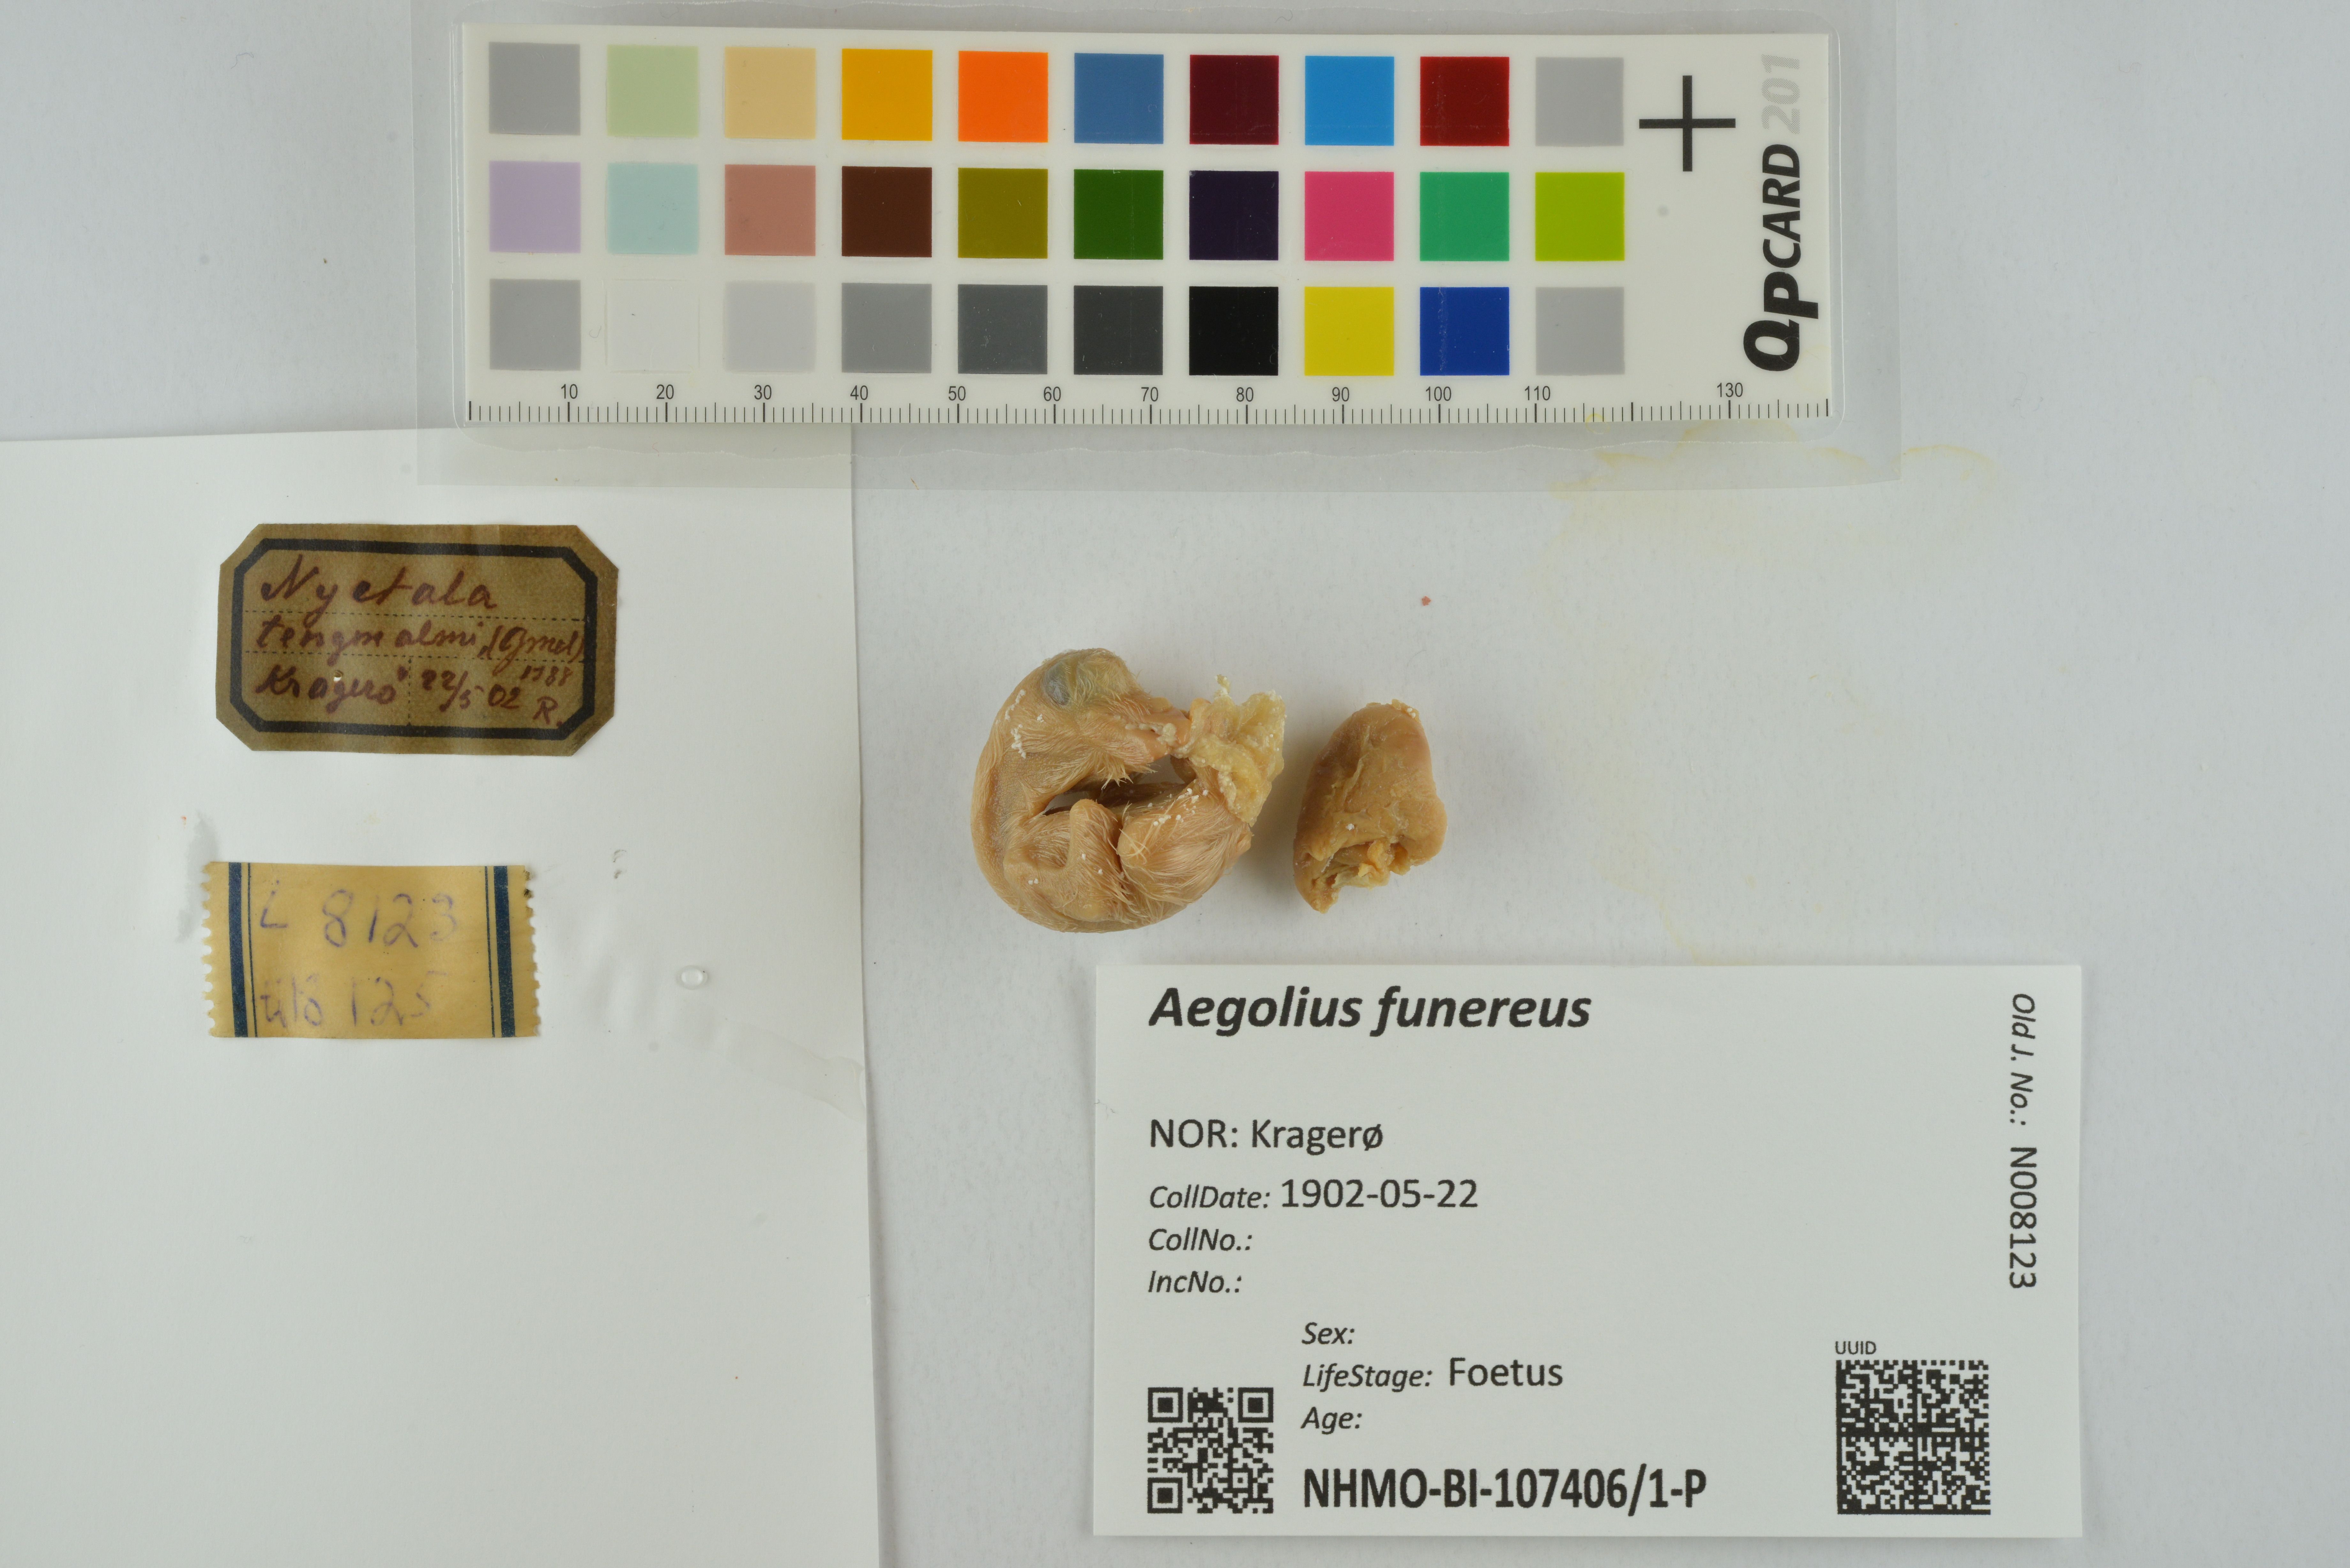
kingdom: Animalia
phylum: Chordata
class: Aves
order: Strigiformes
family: Strigidae
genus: Aegolius
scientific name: Aegolius funereus
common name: Boreal owl
